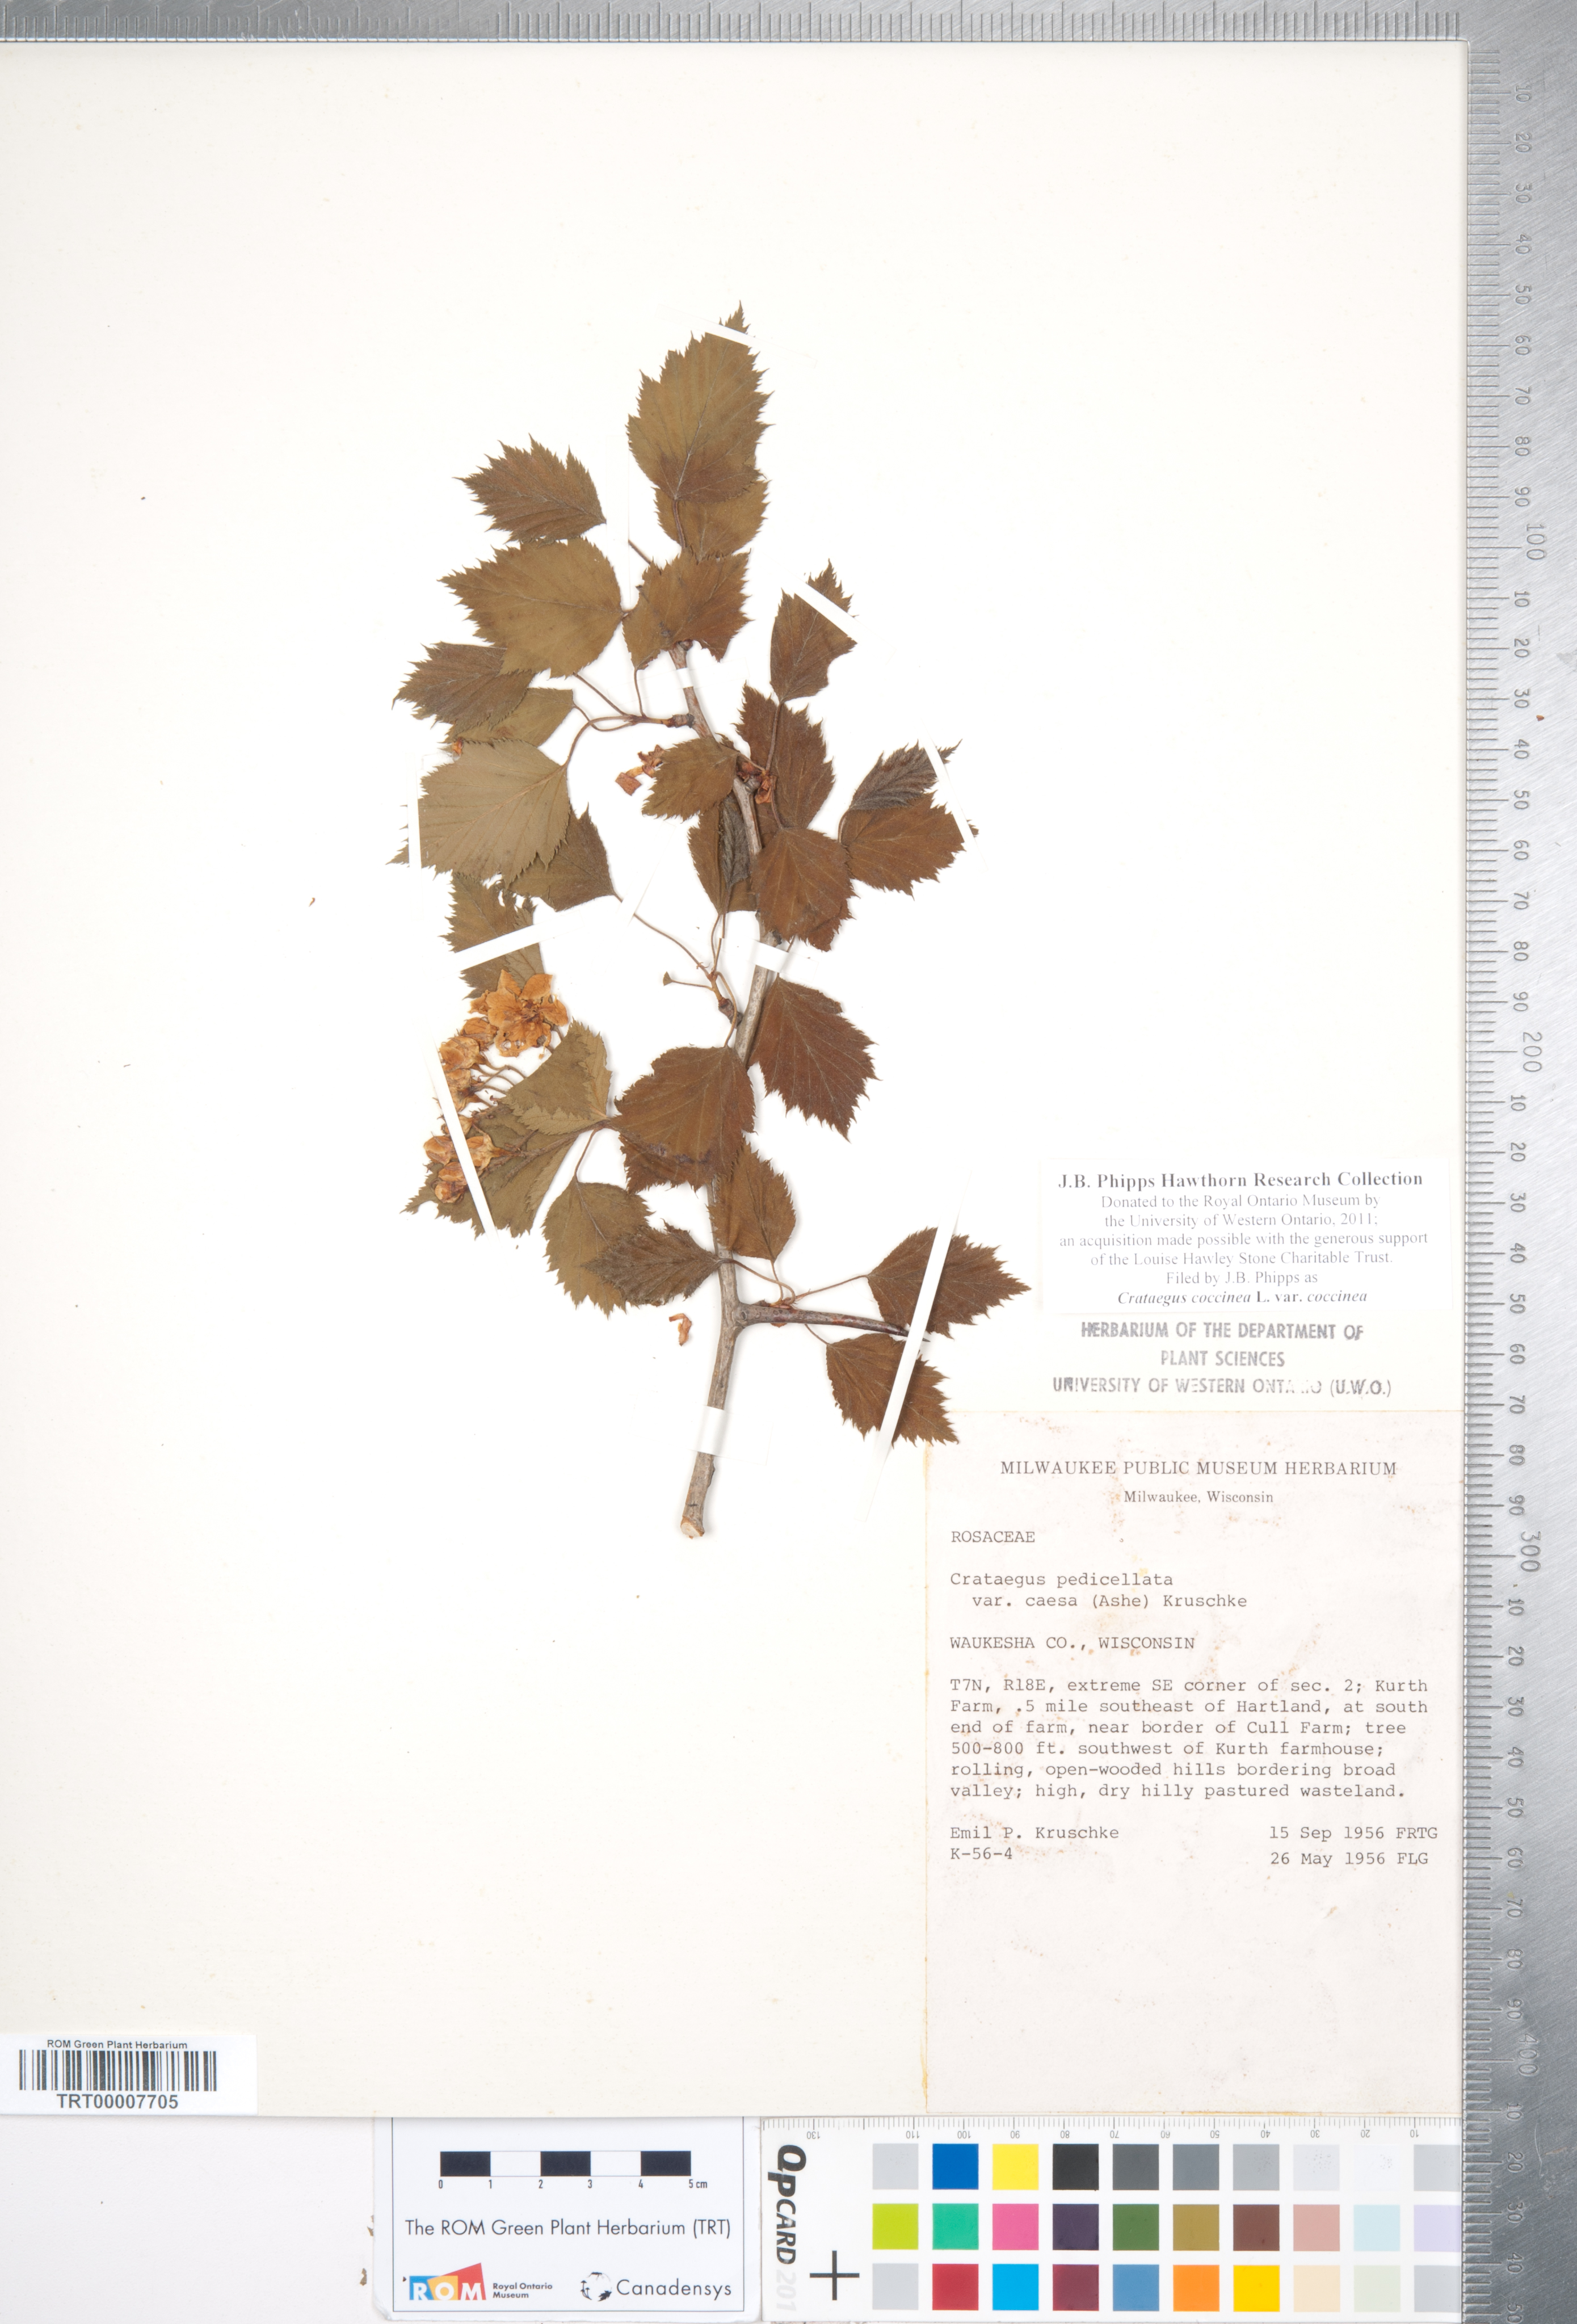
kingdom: Plantae
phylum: Tracheophyta
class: Magnoliopsida
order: Rosales
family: Rosaceae
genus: Crataegus
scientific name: Crataegus coccinea
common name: Scarlet hawthorn
